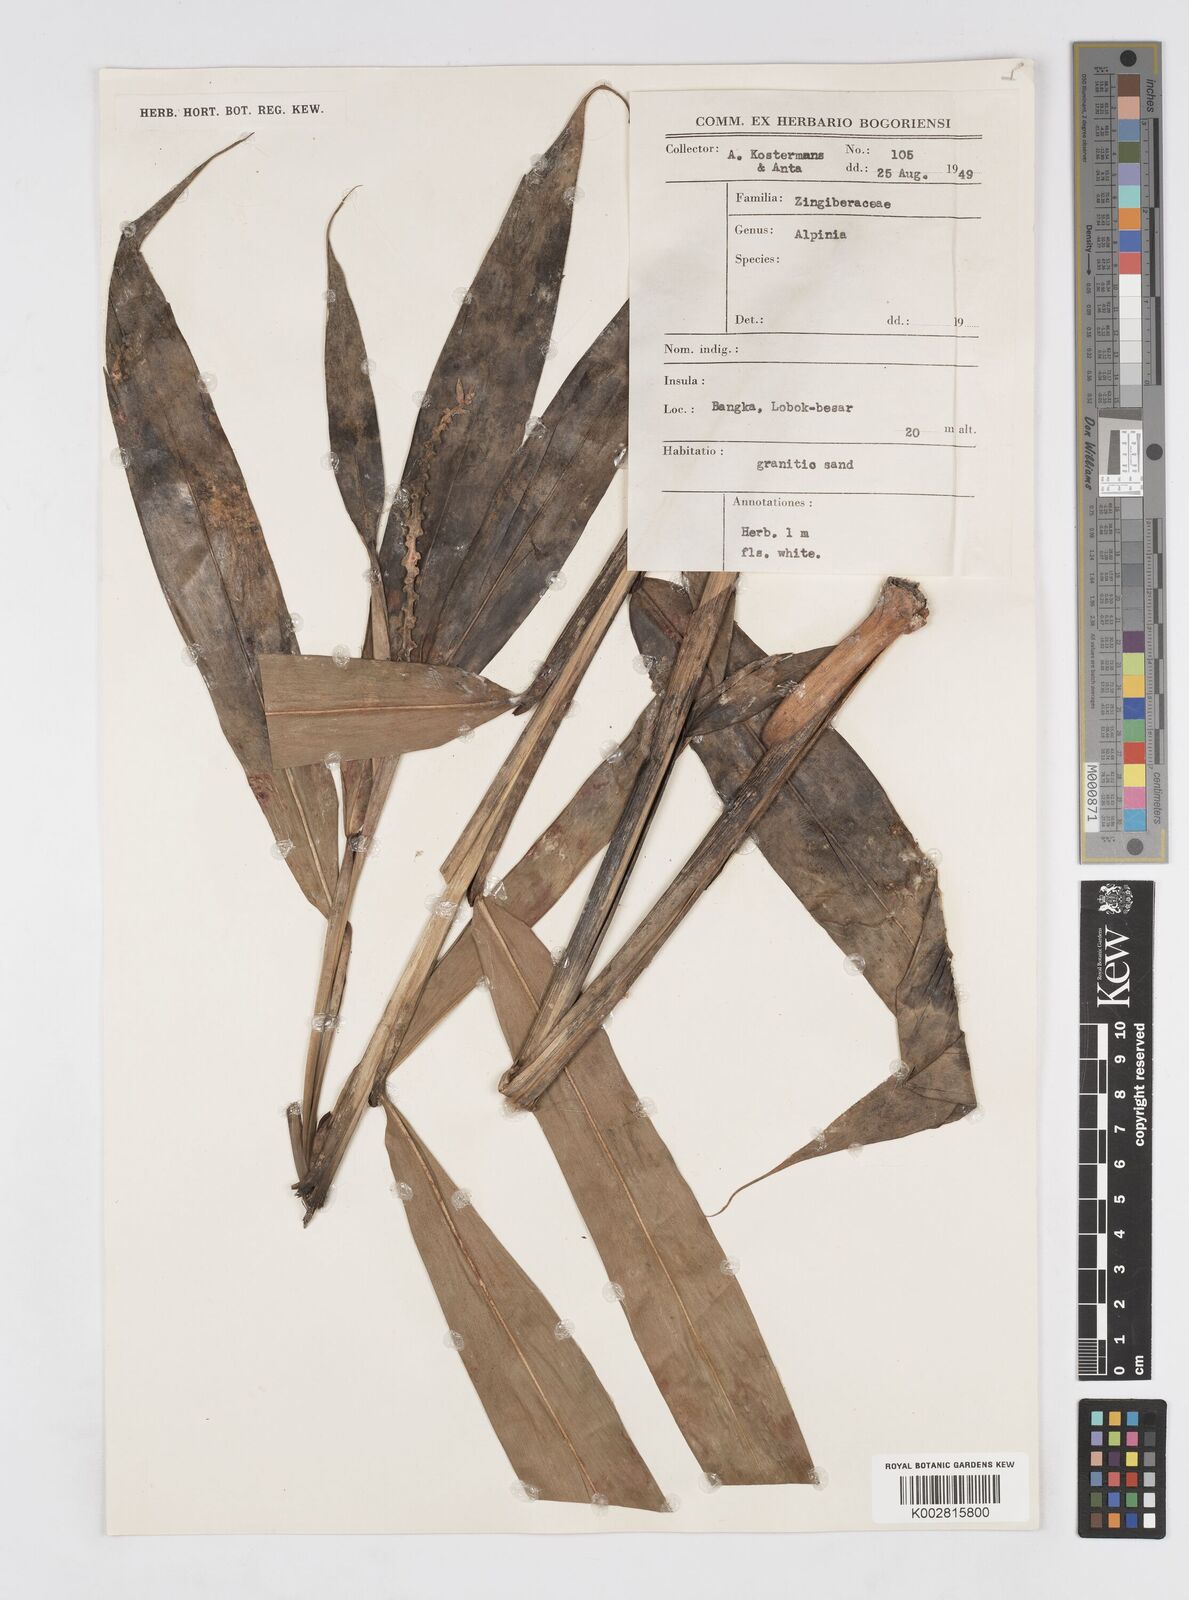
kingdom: Plantae
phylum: Tracheophyta
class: Liliopsida
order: Zingiberales
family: Zingiberaceae
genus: Alpinia
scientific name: Alpinia oxymitra
